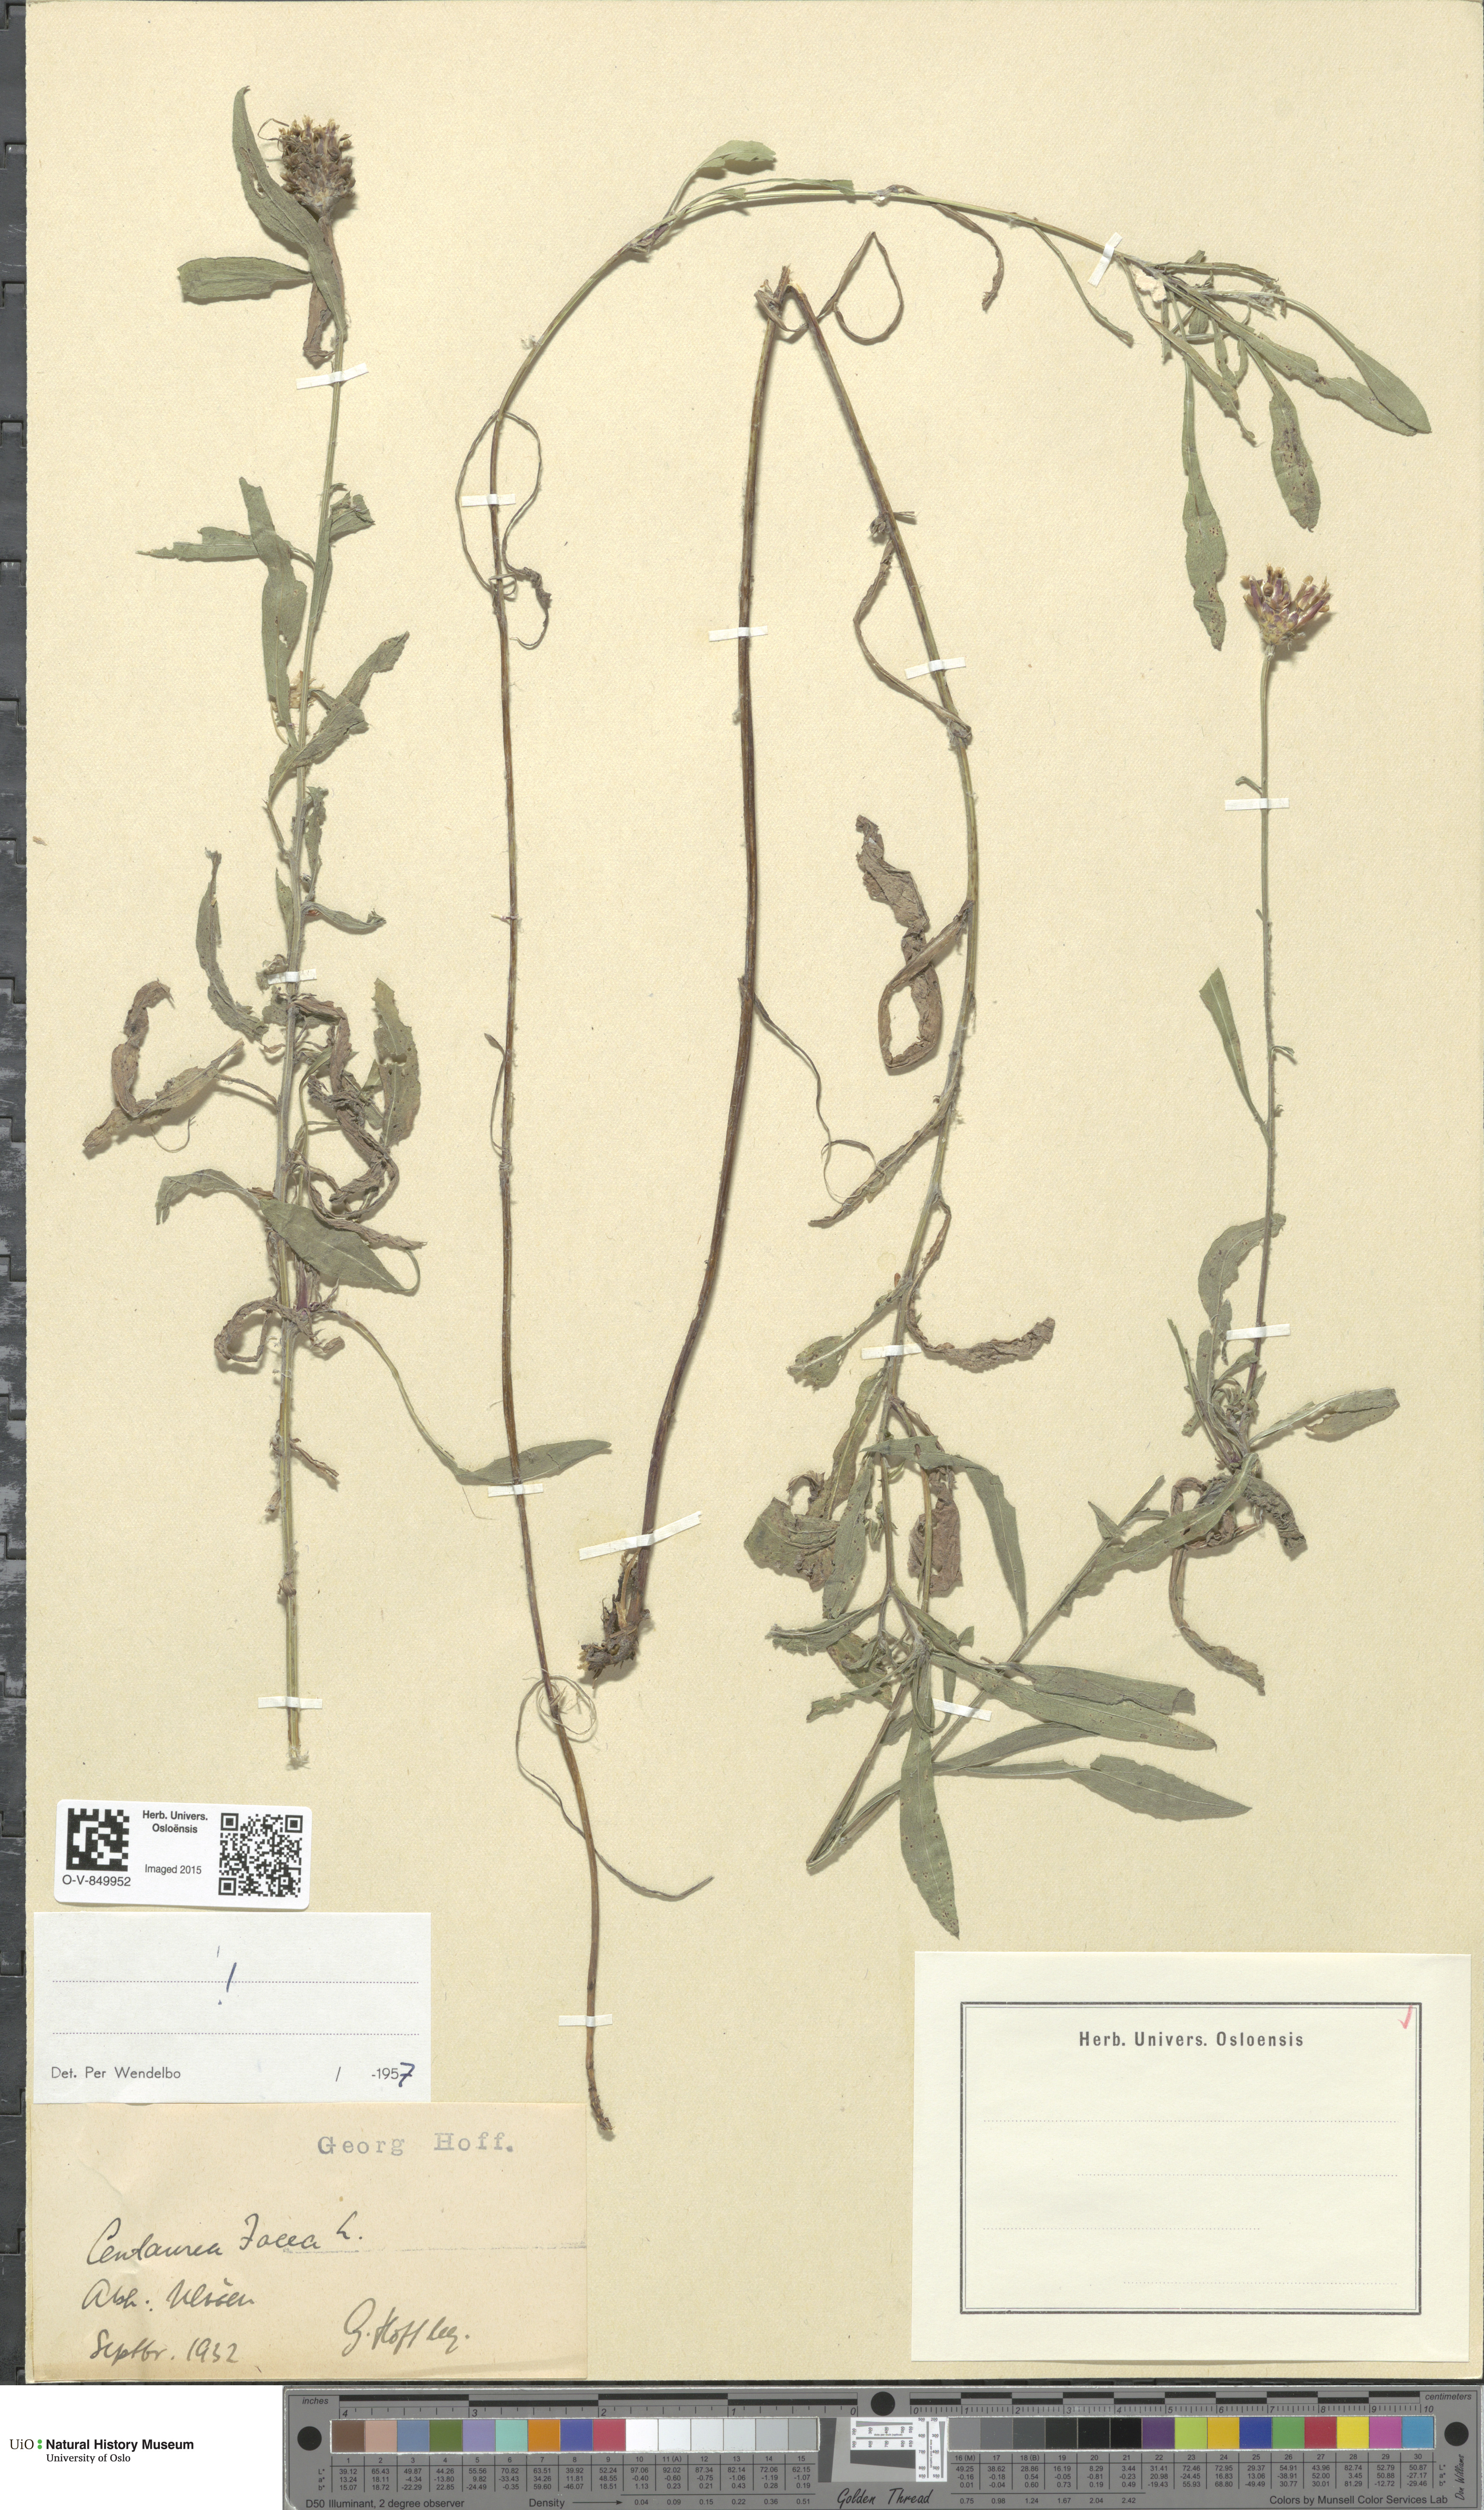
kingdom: Plantae
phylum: Tracheophyta
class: Magnoliopsida
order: Asterales
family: Asteraceae
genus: Centaurea
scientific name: Centaurea jacea
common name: Brown knapweed
